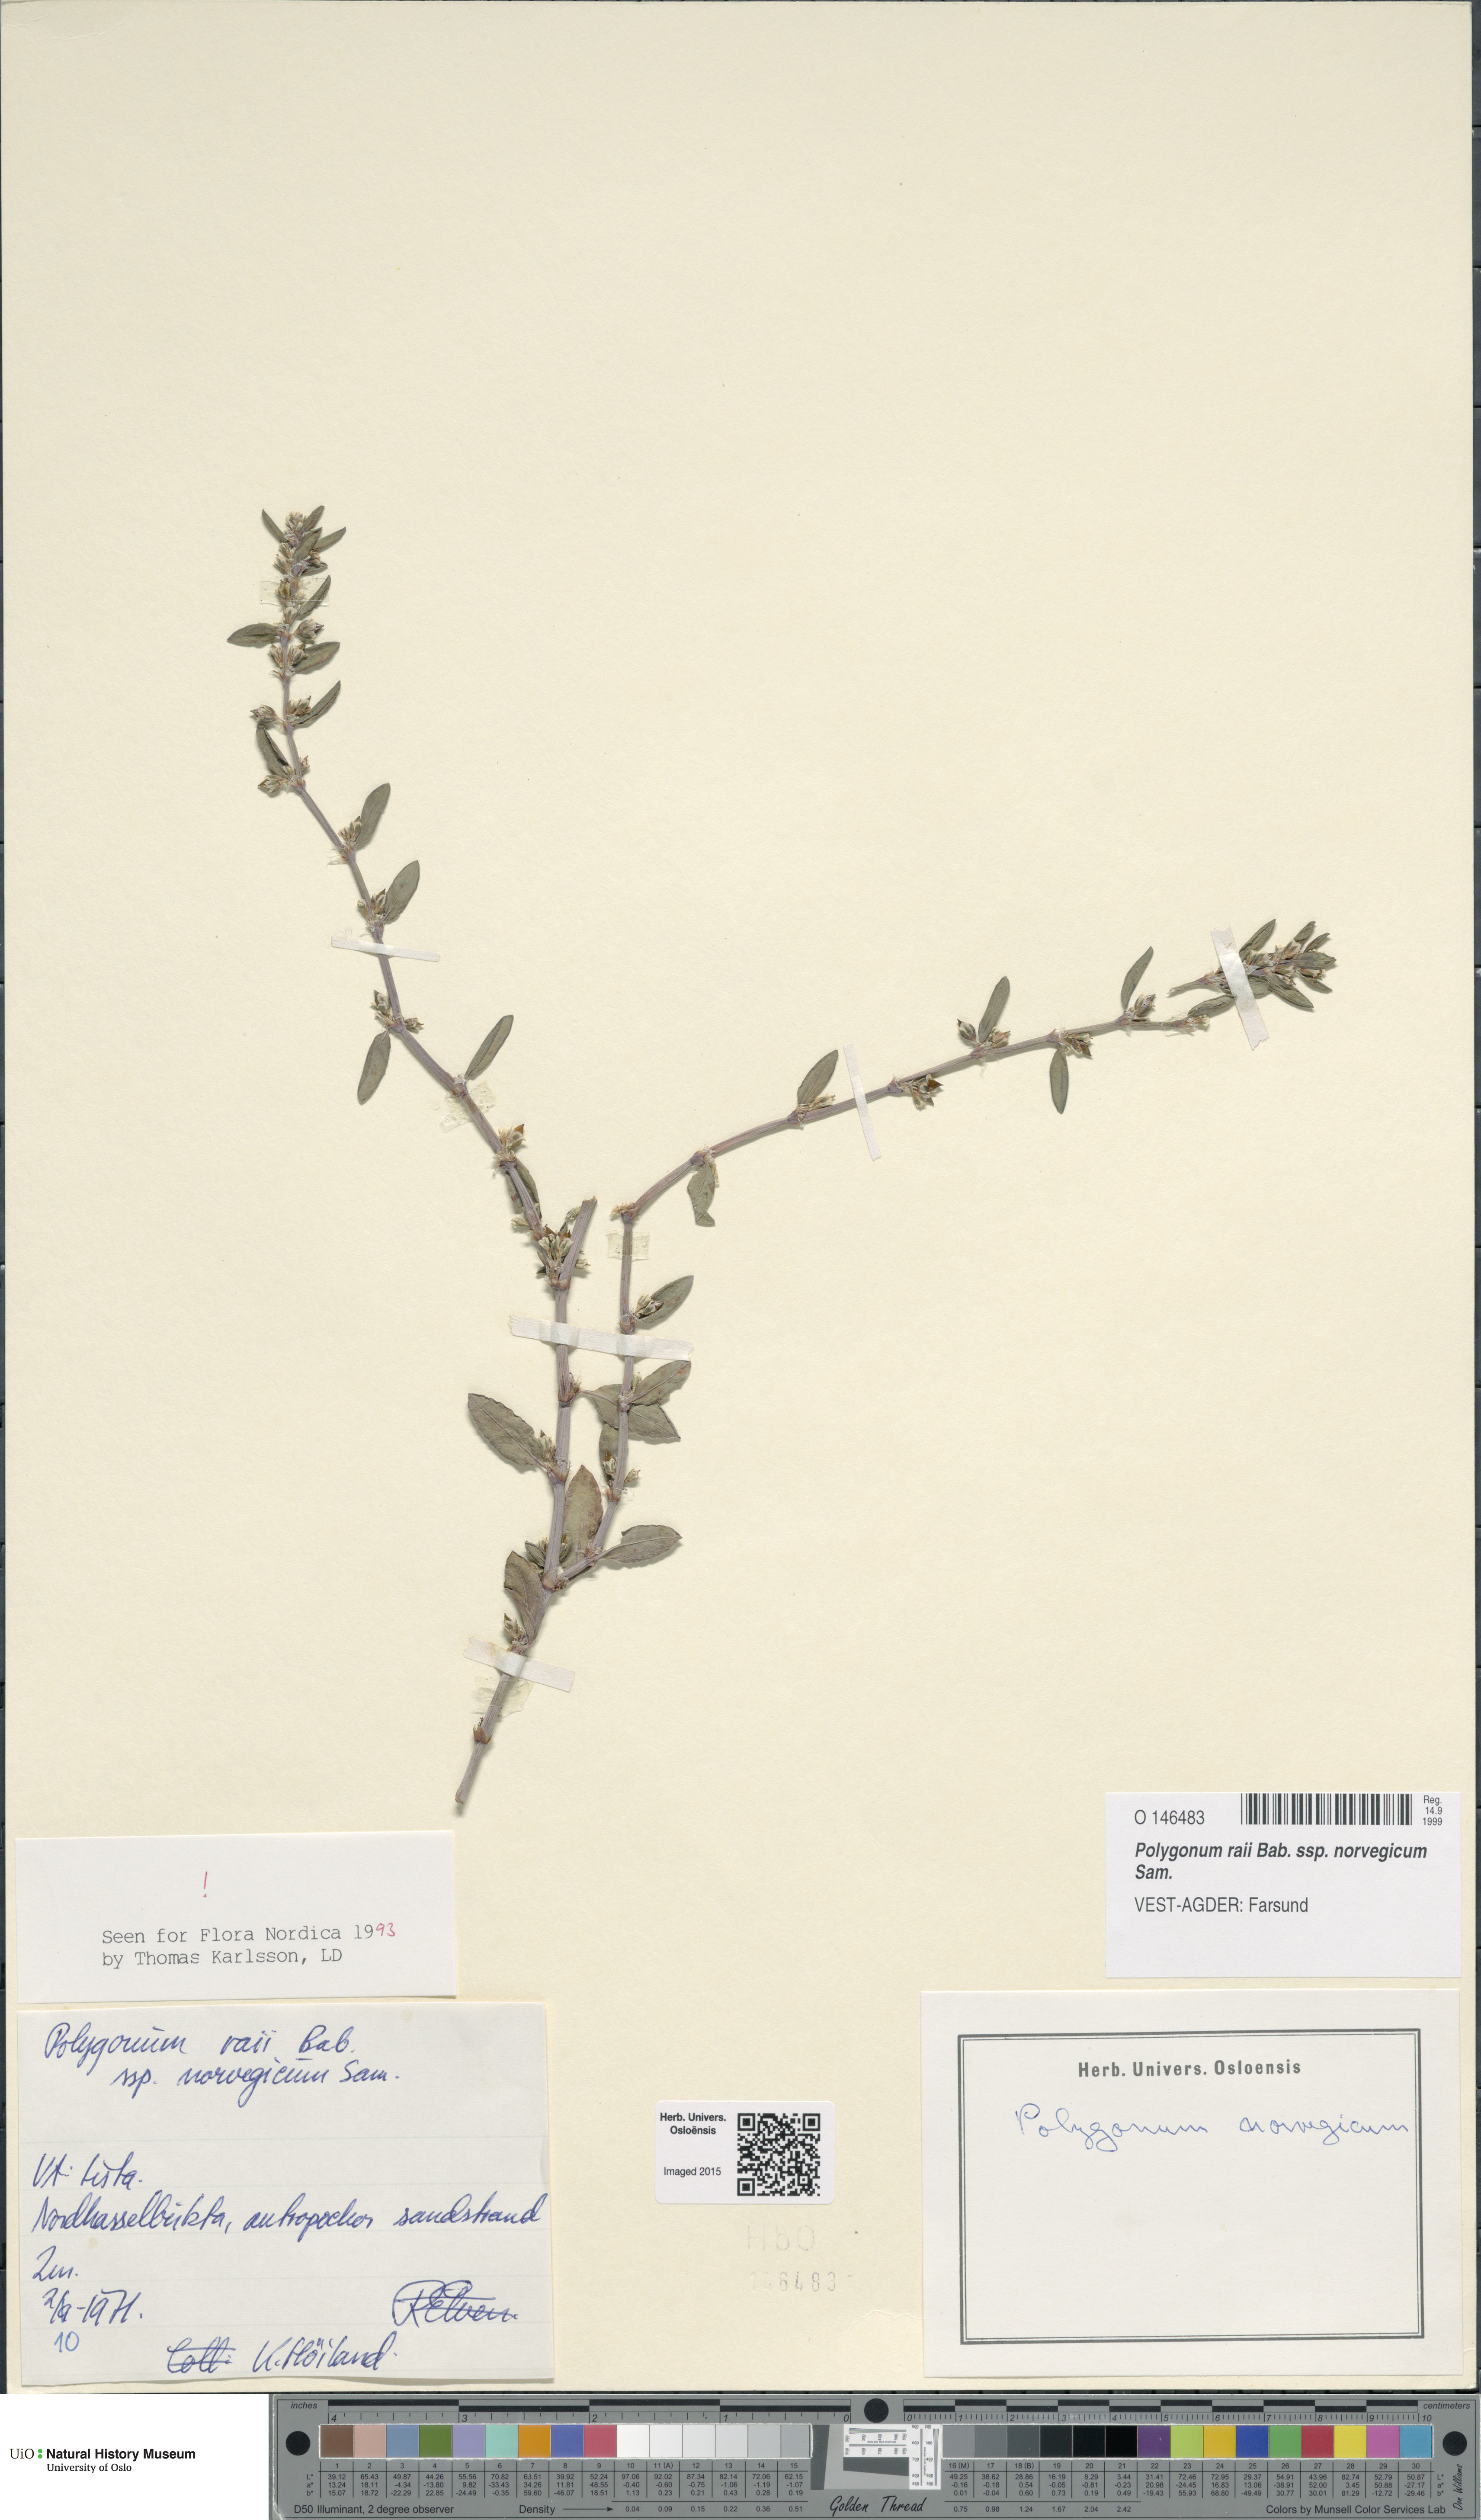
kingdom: Plantae
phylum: Tracheophyta
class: Magnoliopsida
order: Caryophyllales
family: Polygonaceae
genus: Polygonum
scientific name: Polygonum norvegicum
